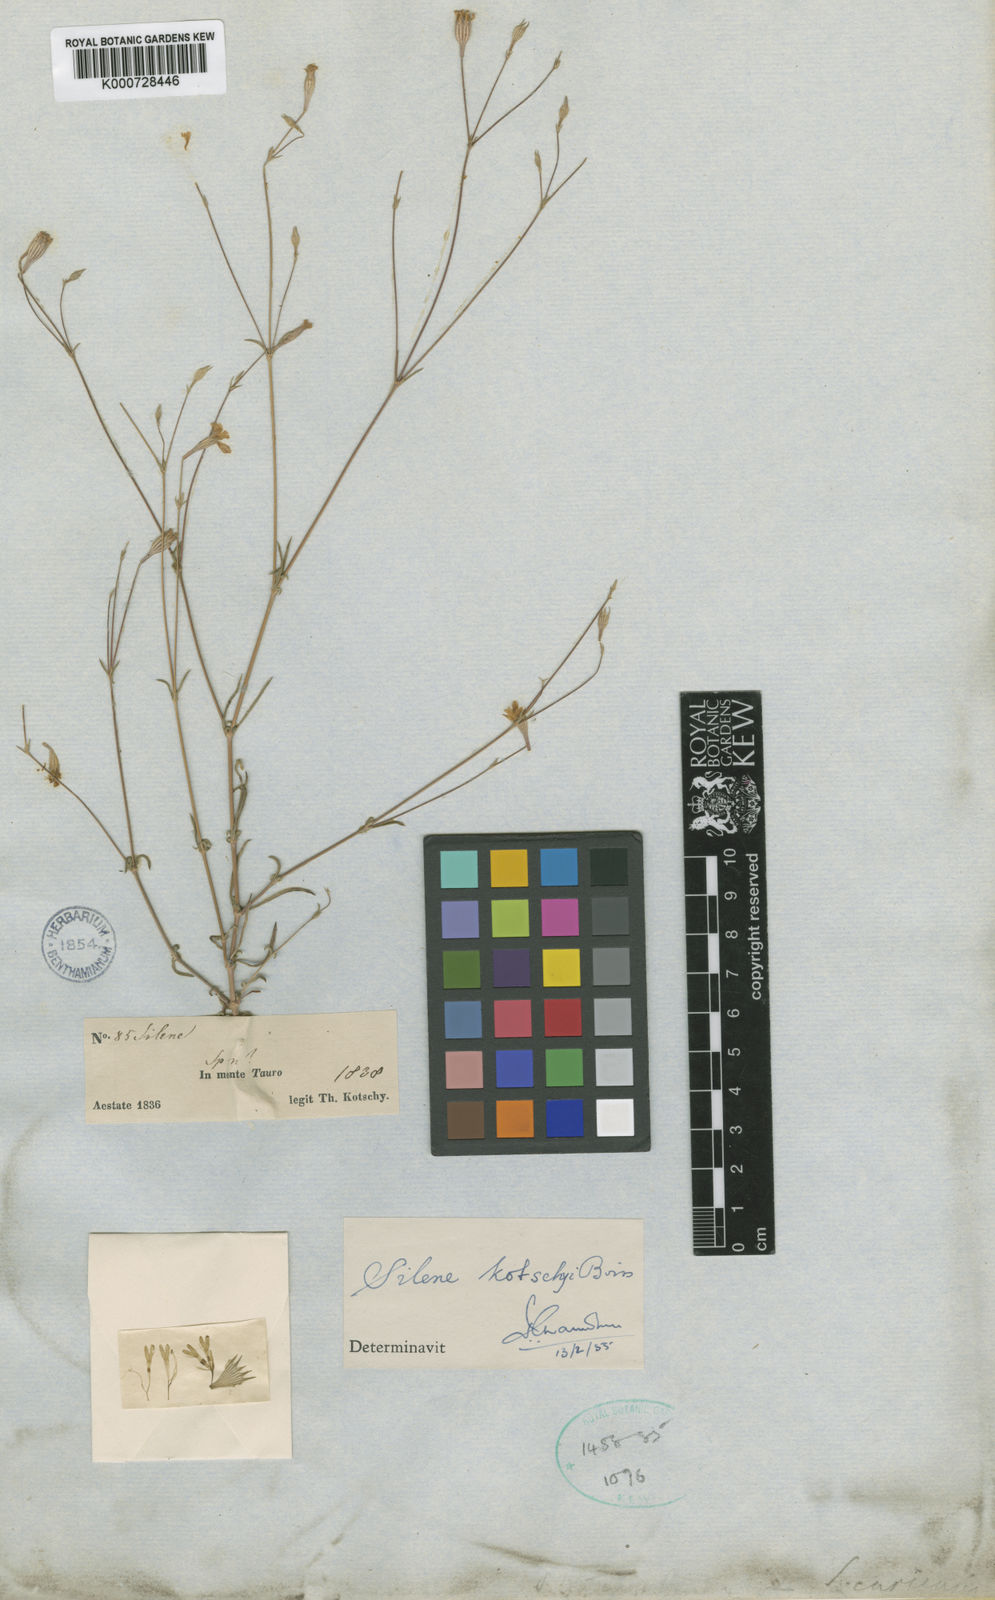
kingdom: Plantae
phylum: Tracheophyta
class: Magnoliopsida
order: Caryophyllales
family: Caryophyllaceae
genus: Silene
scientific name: Silene microsperma
